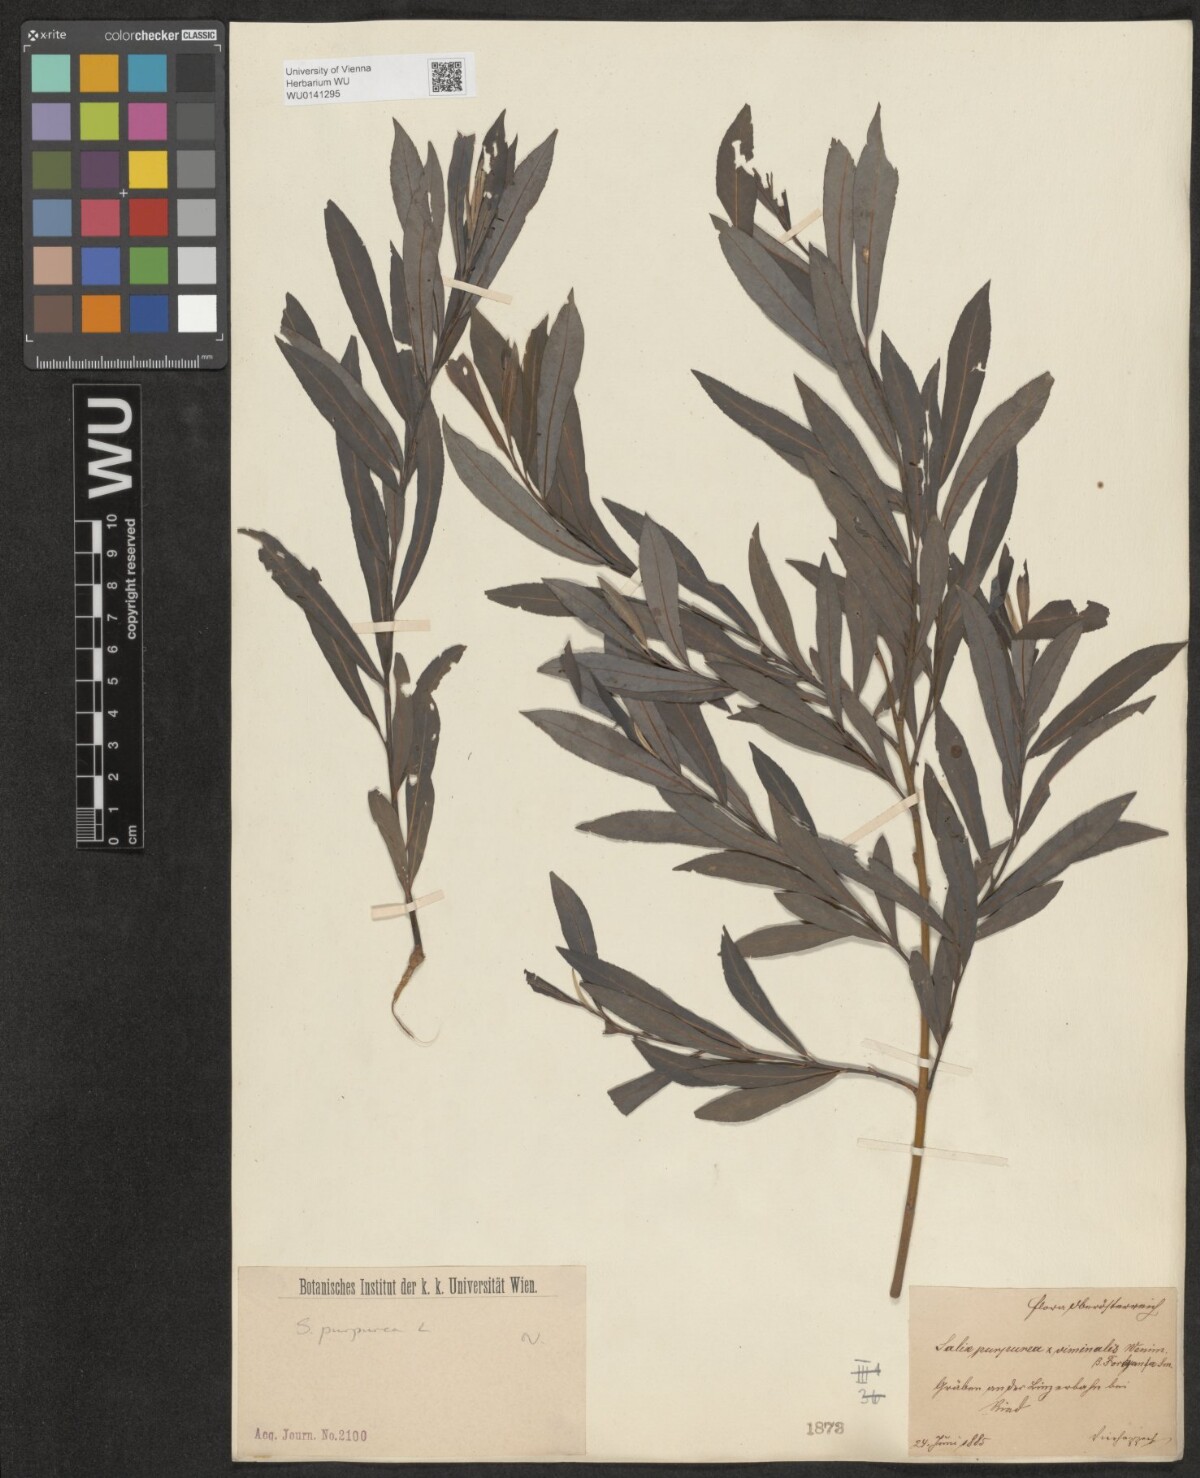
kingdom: Plantae
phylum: Tracheophyta
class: Magnoliopsida
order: Malpighiales
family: Salicaceae
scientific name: Salicaceae
